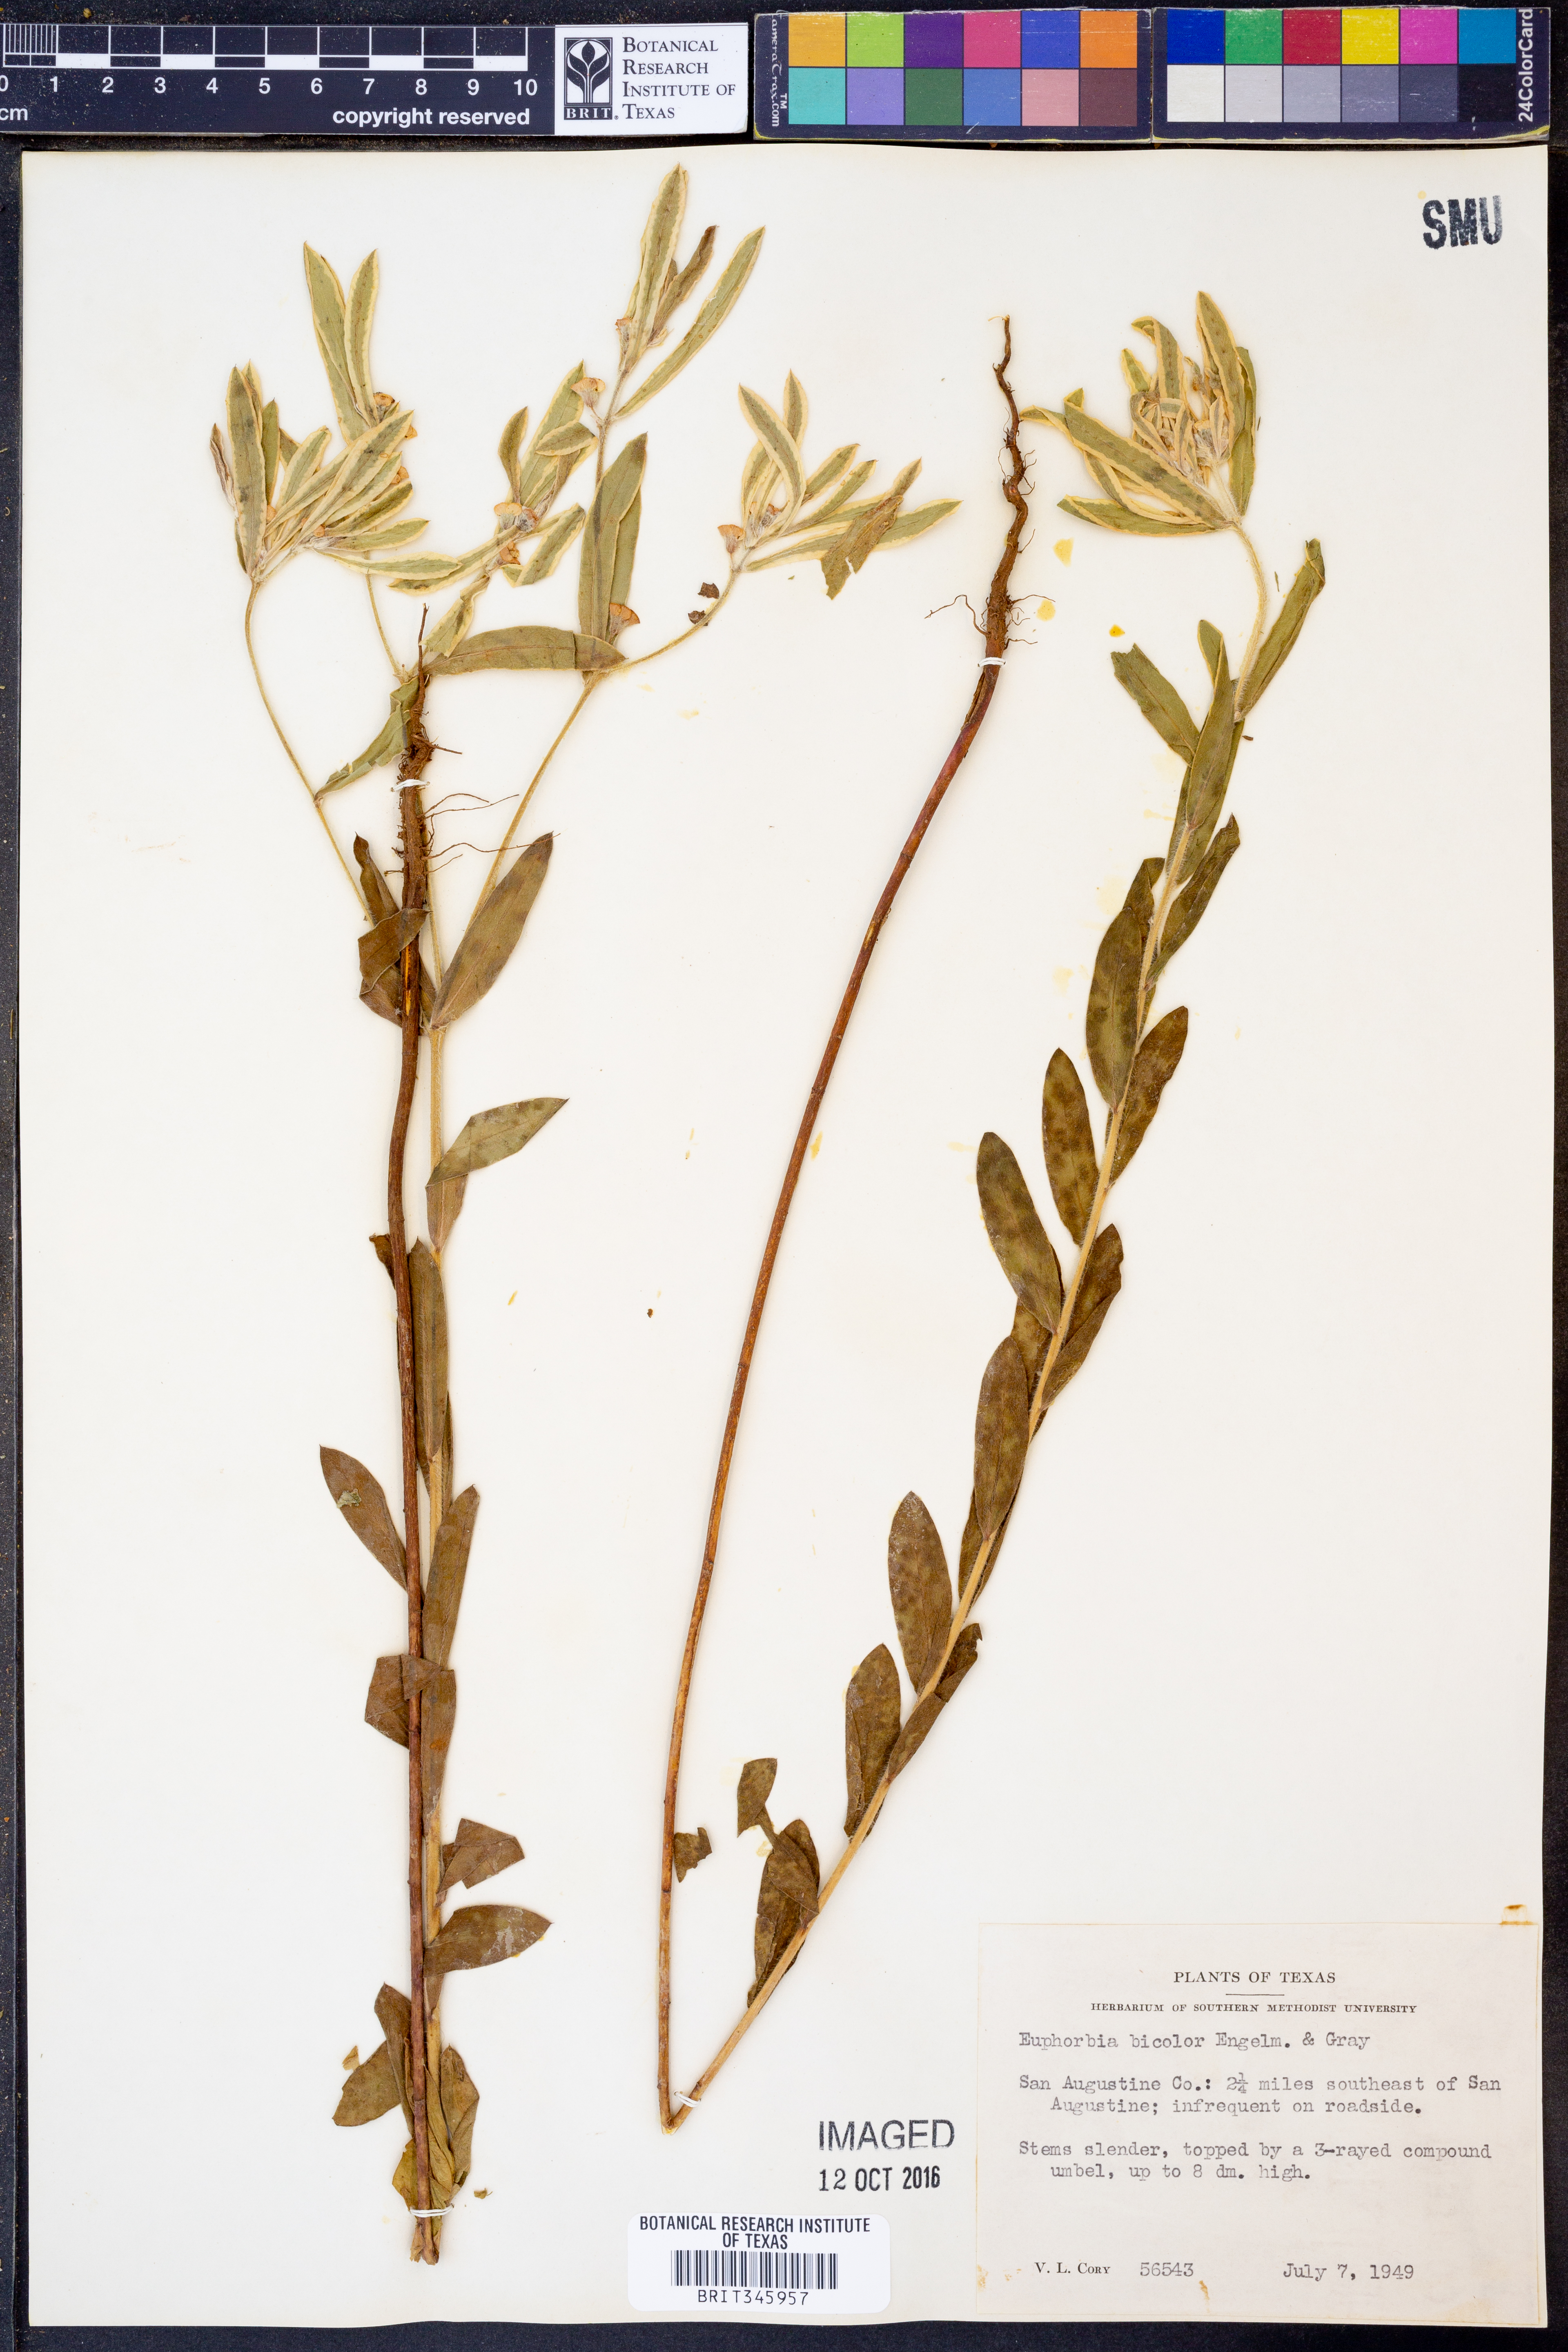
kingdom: Plantae
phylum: Tracheophyta
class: Magnoliopsida
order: Malpighiales
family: Euphorbiaceae
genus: Euphorbia
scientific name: Euphorbia bicolor
